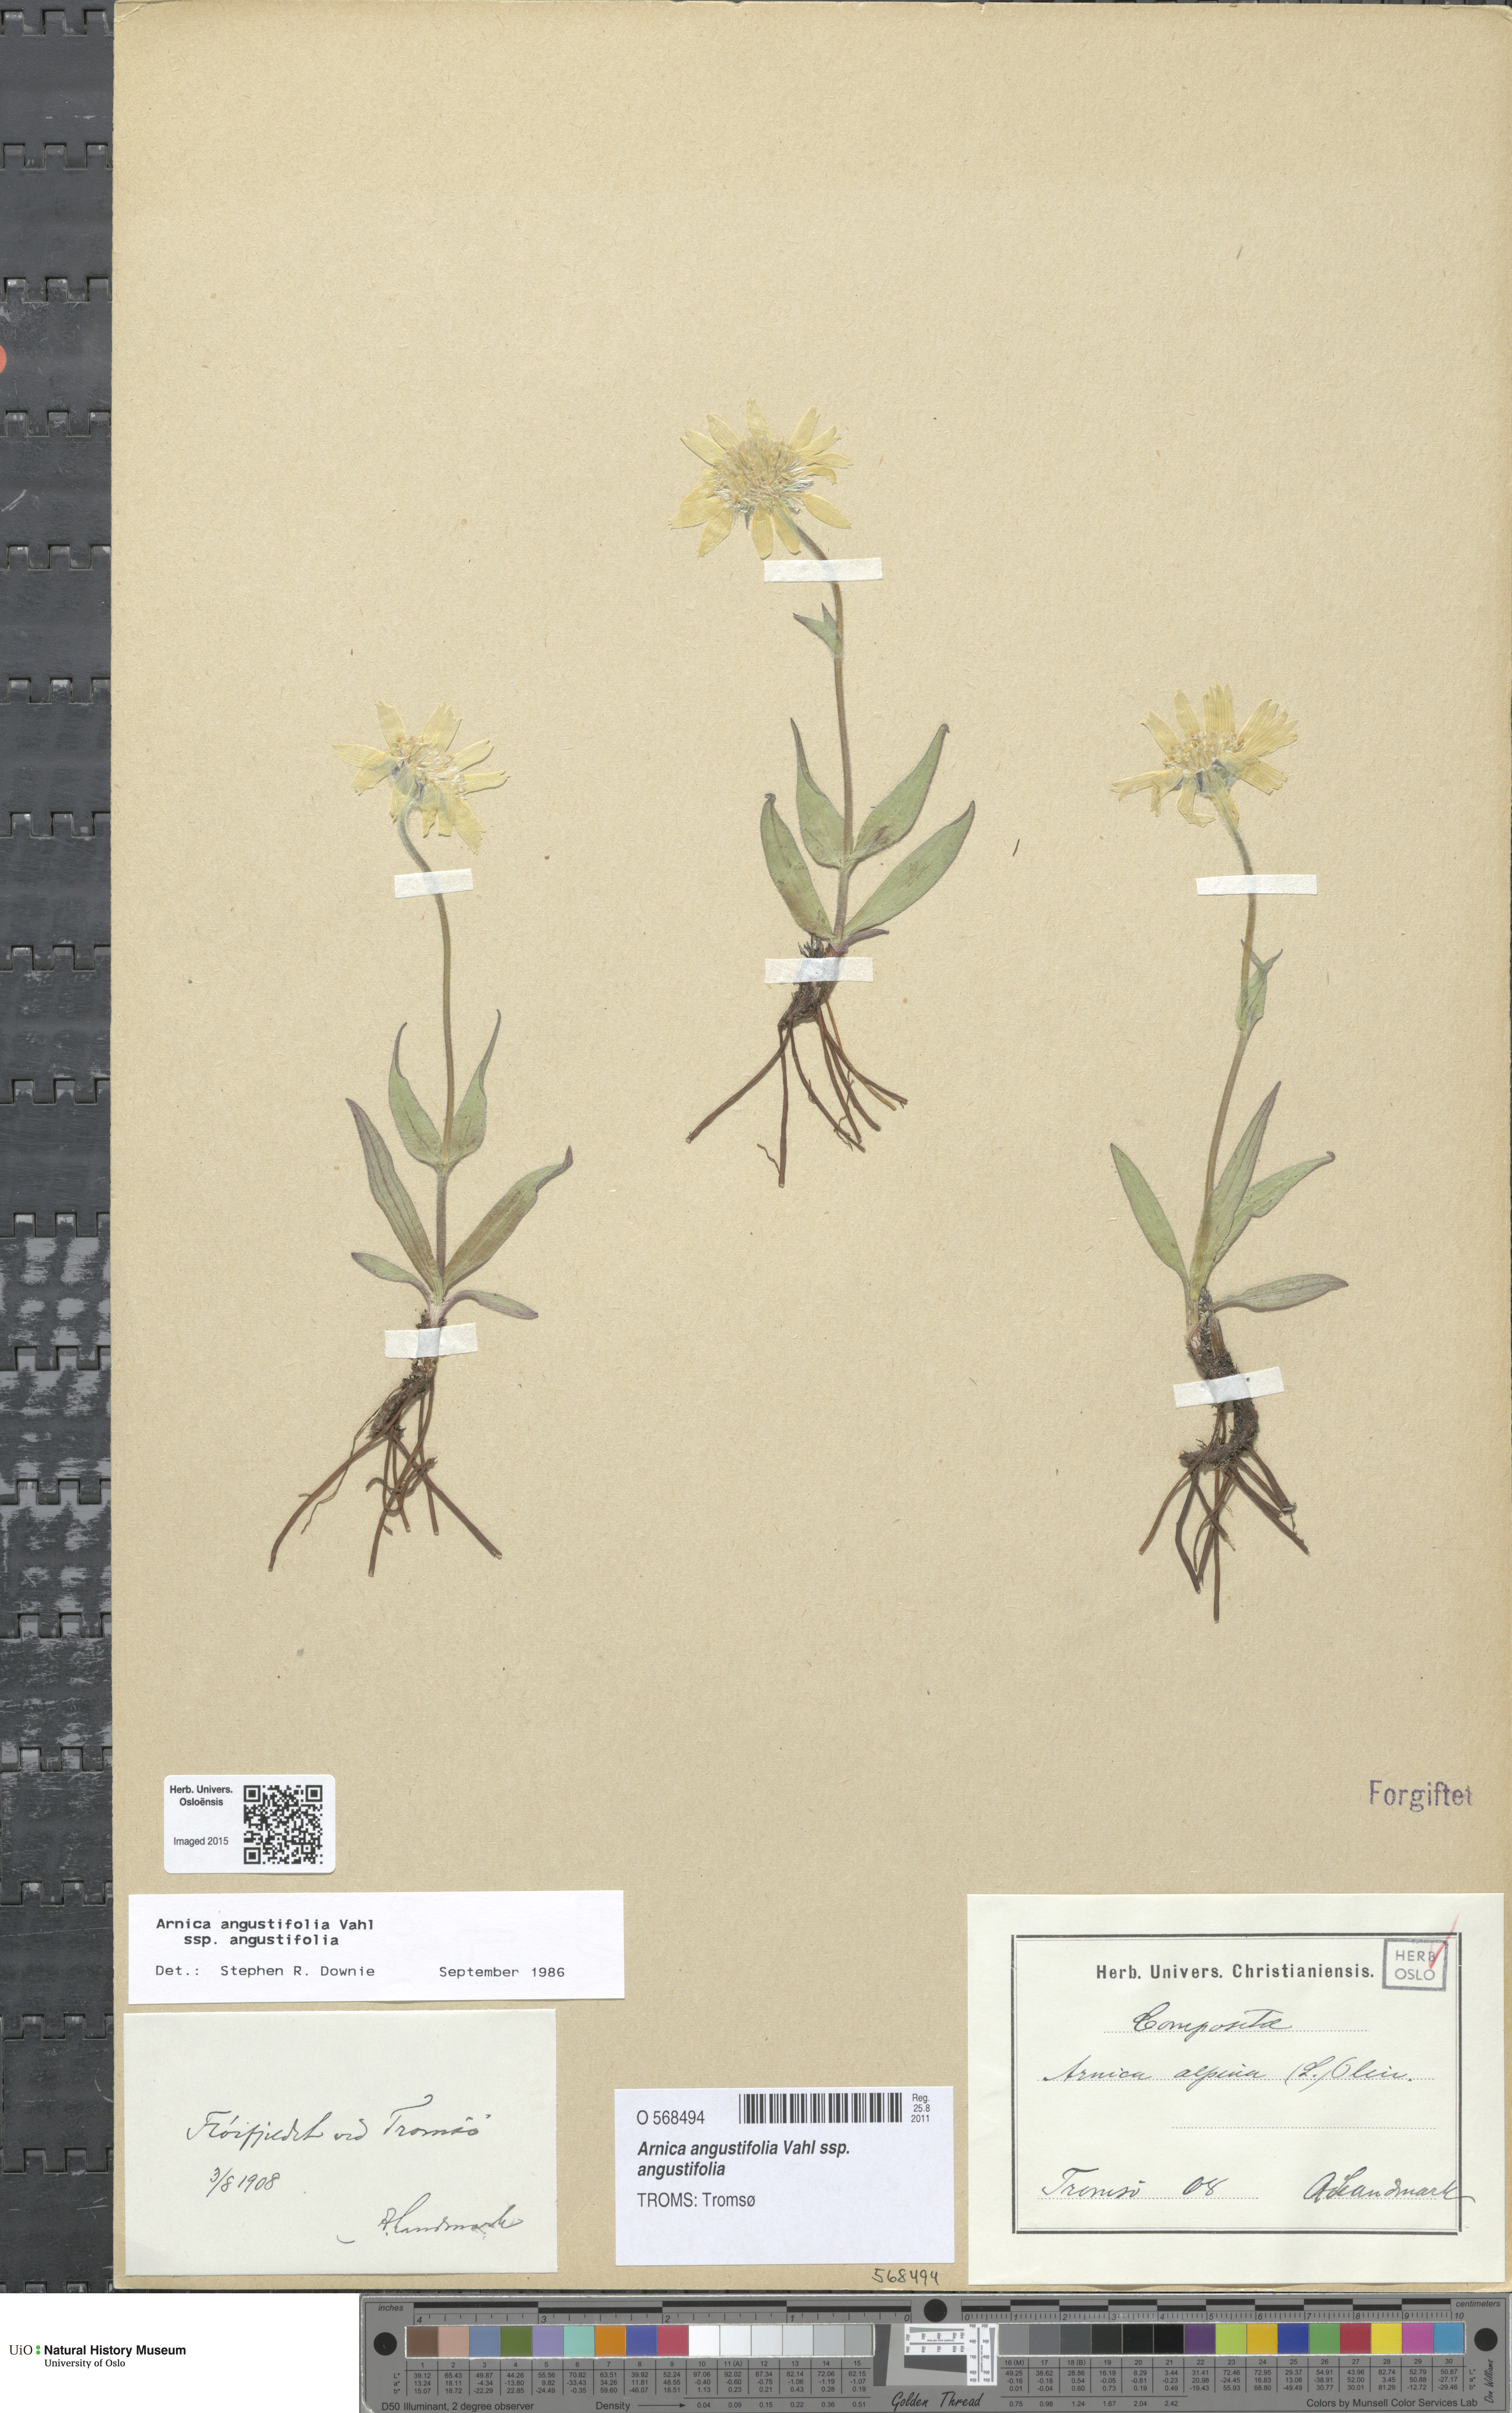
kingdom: Plantae
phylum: Tracheophyta
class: Magnoliopsida
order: Asterales
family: Asteraceae
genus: Arnica
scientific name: Arnica angustifolia
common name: Arctic arnica
